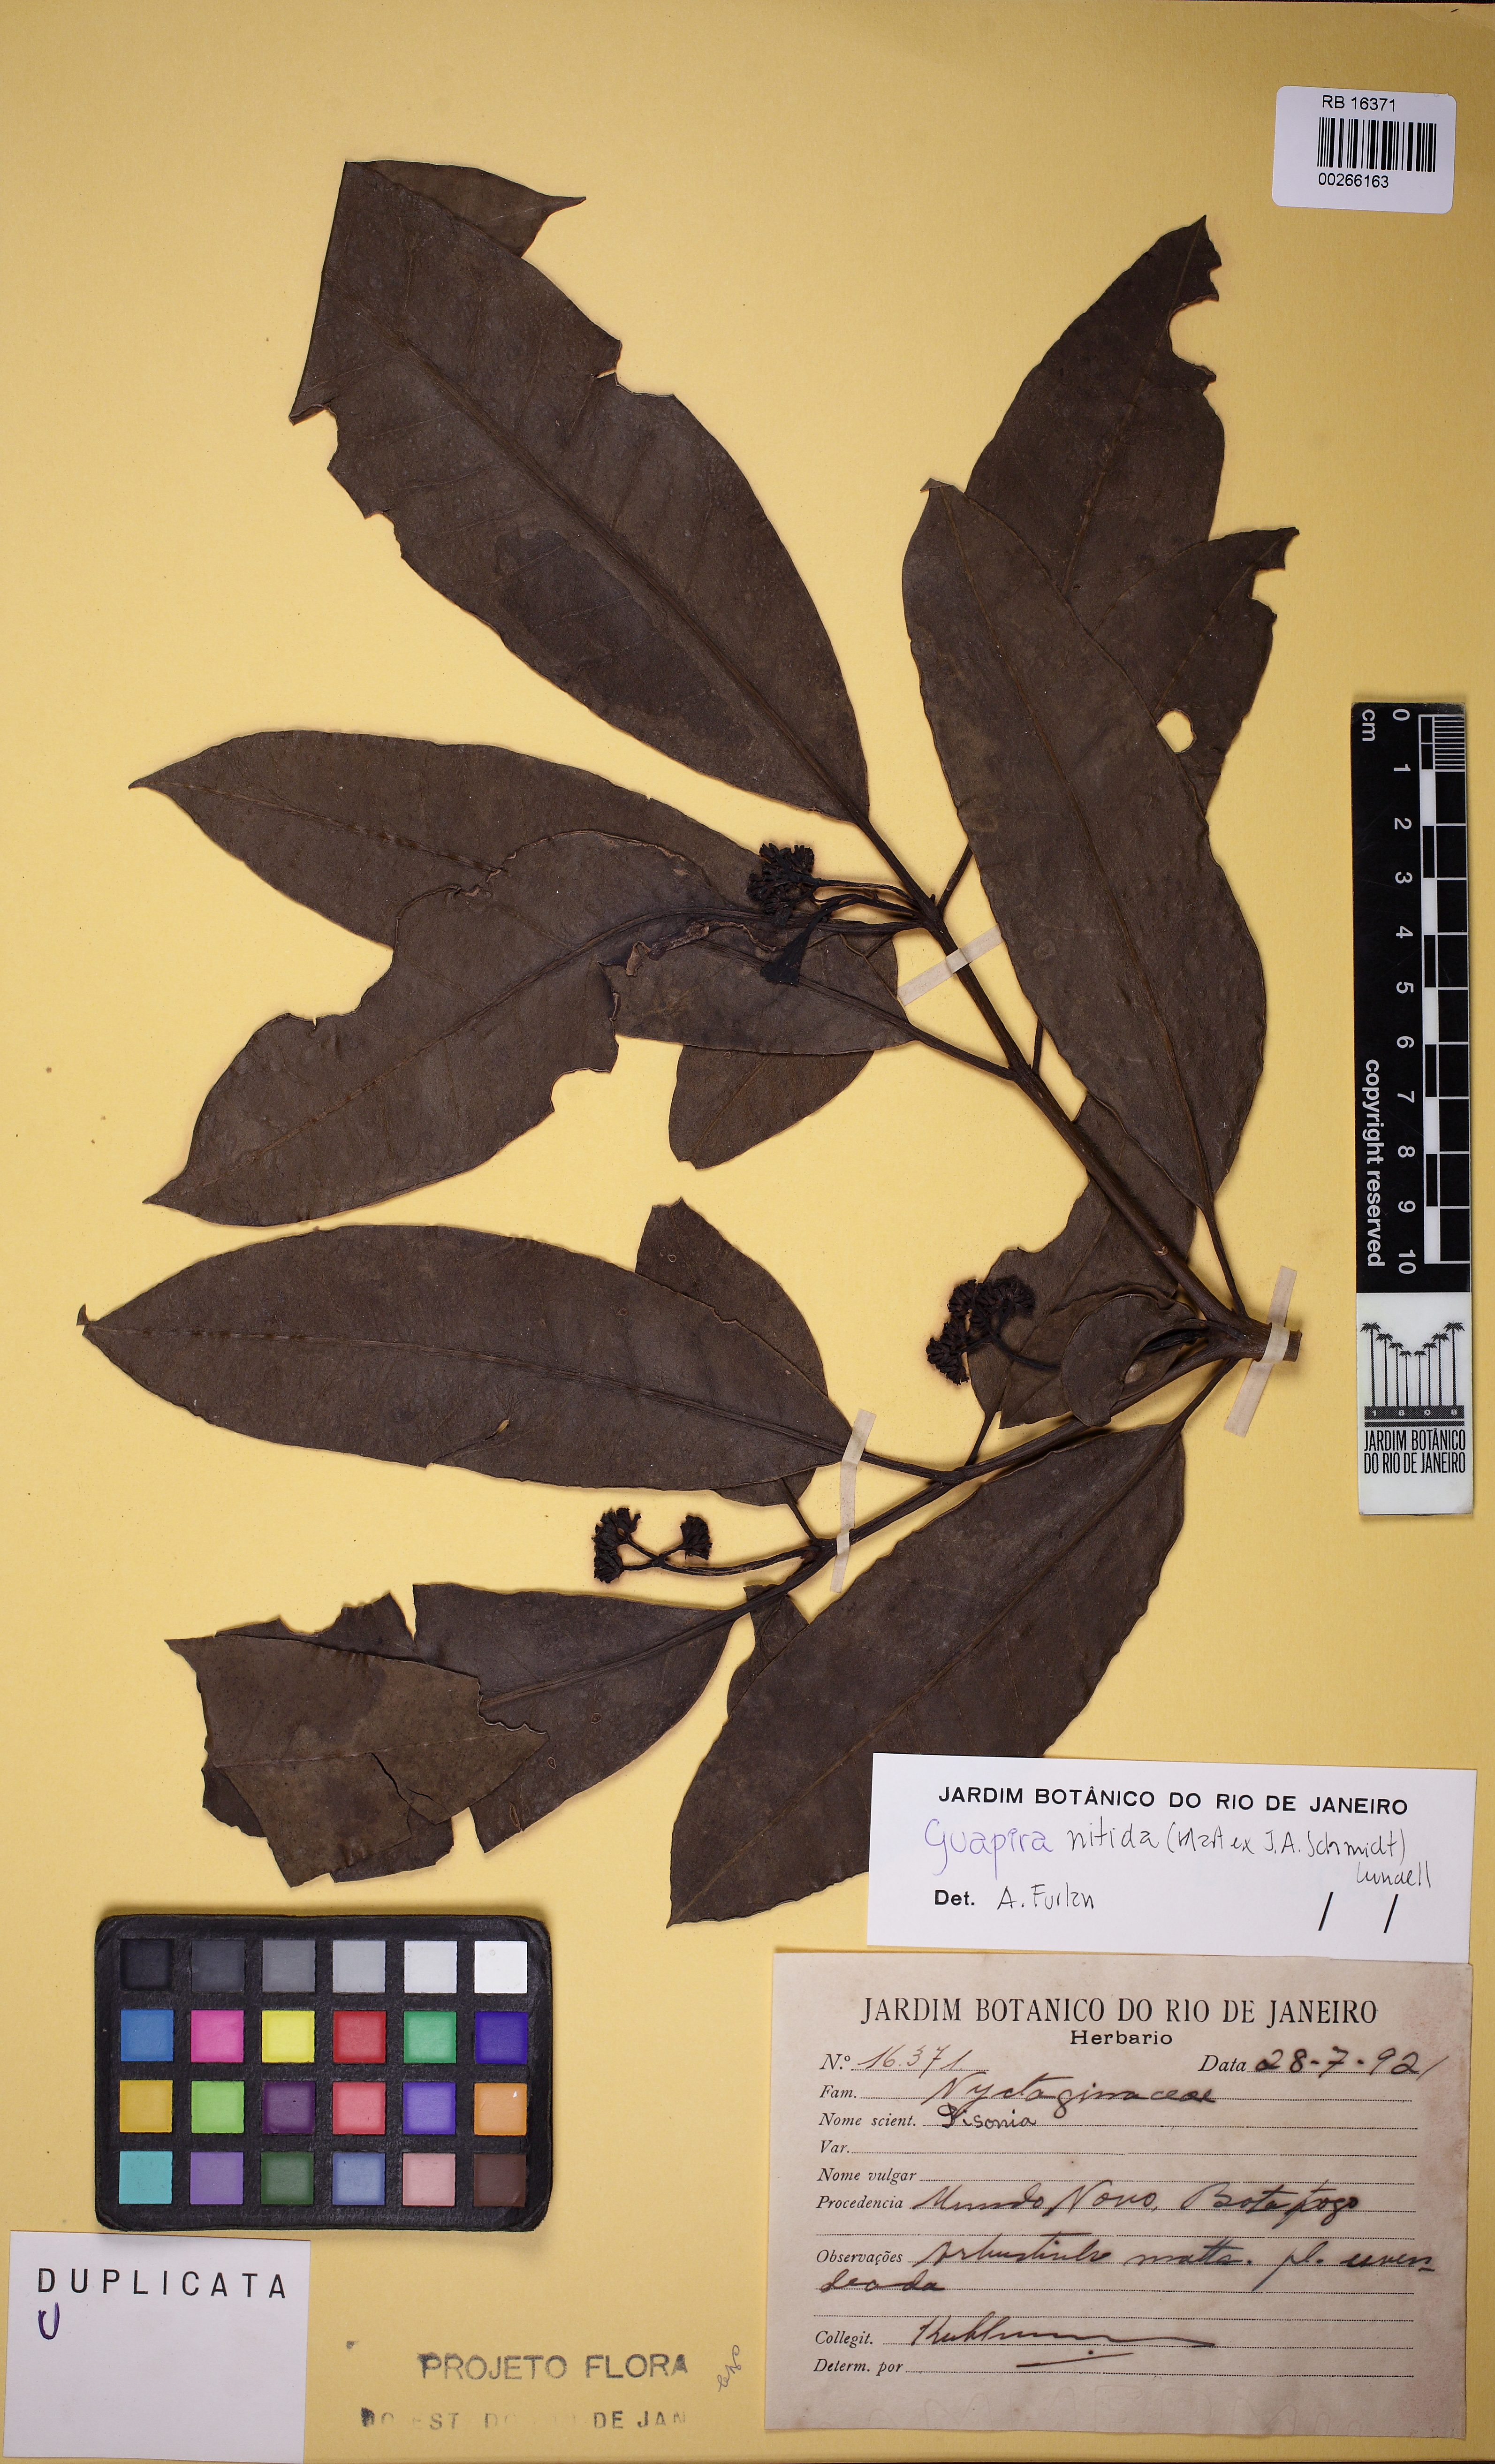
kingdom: Plantae
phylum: Tracheophyta
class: Magnoliopsida
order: Caryophyllales
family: Nyctaginaceae
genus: Guapira
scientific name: Guapira nitida
